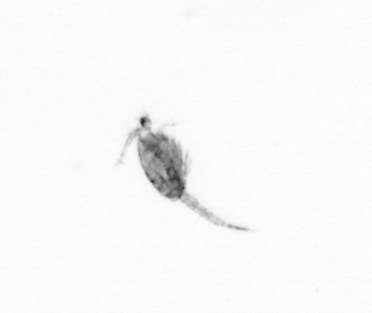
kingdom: Animalia
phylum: Arthropoda
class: Copepoda
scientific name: Copepoda
